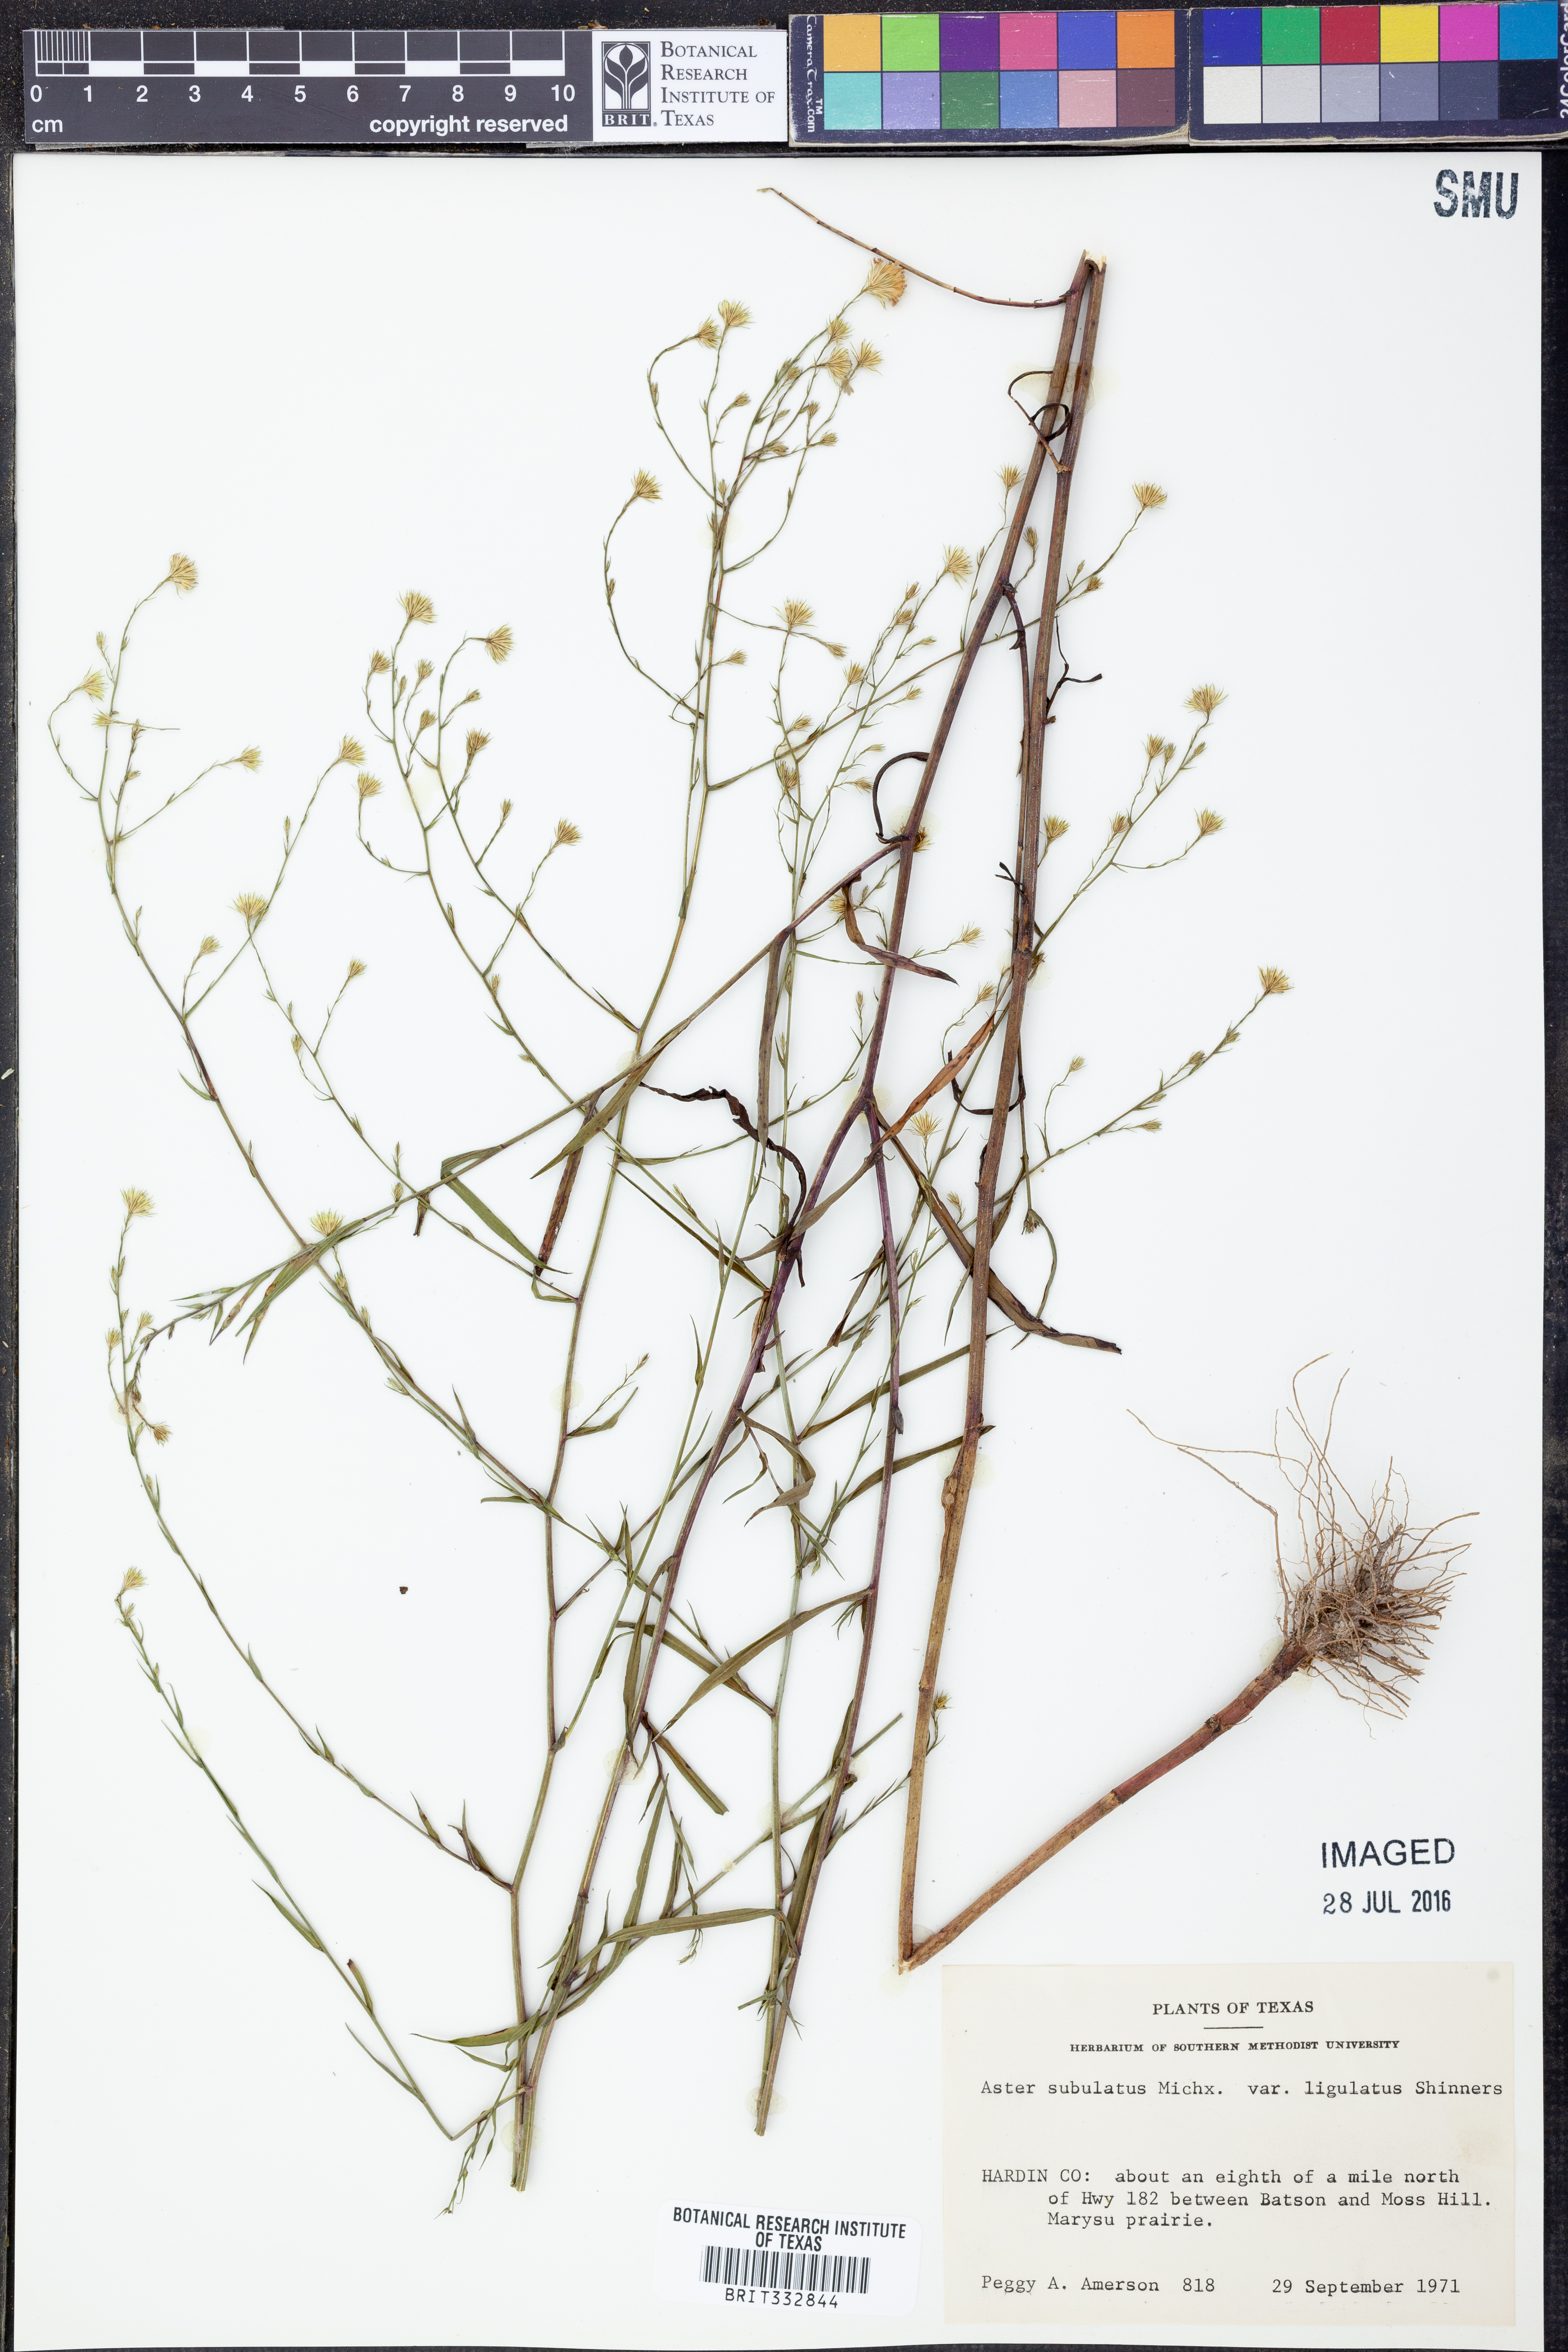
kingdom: Plantae
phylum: Tracheophyta
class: Magnoliopsida
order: Asterales
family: Asteraceae
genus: Symphyotrichum
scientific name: Symphyotrichum divaricatum
